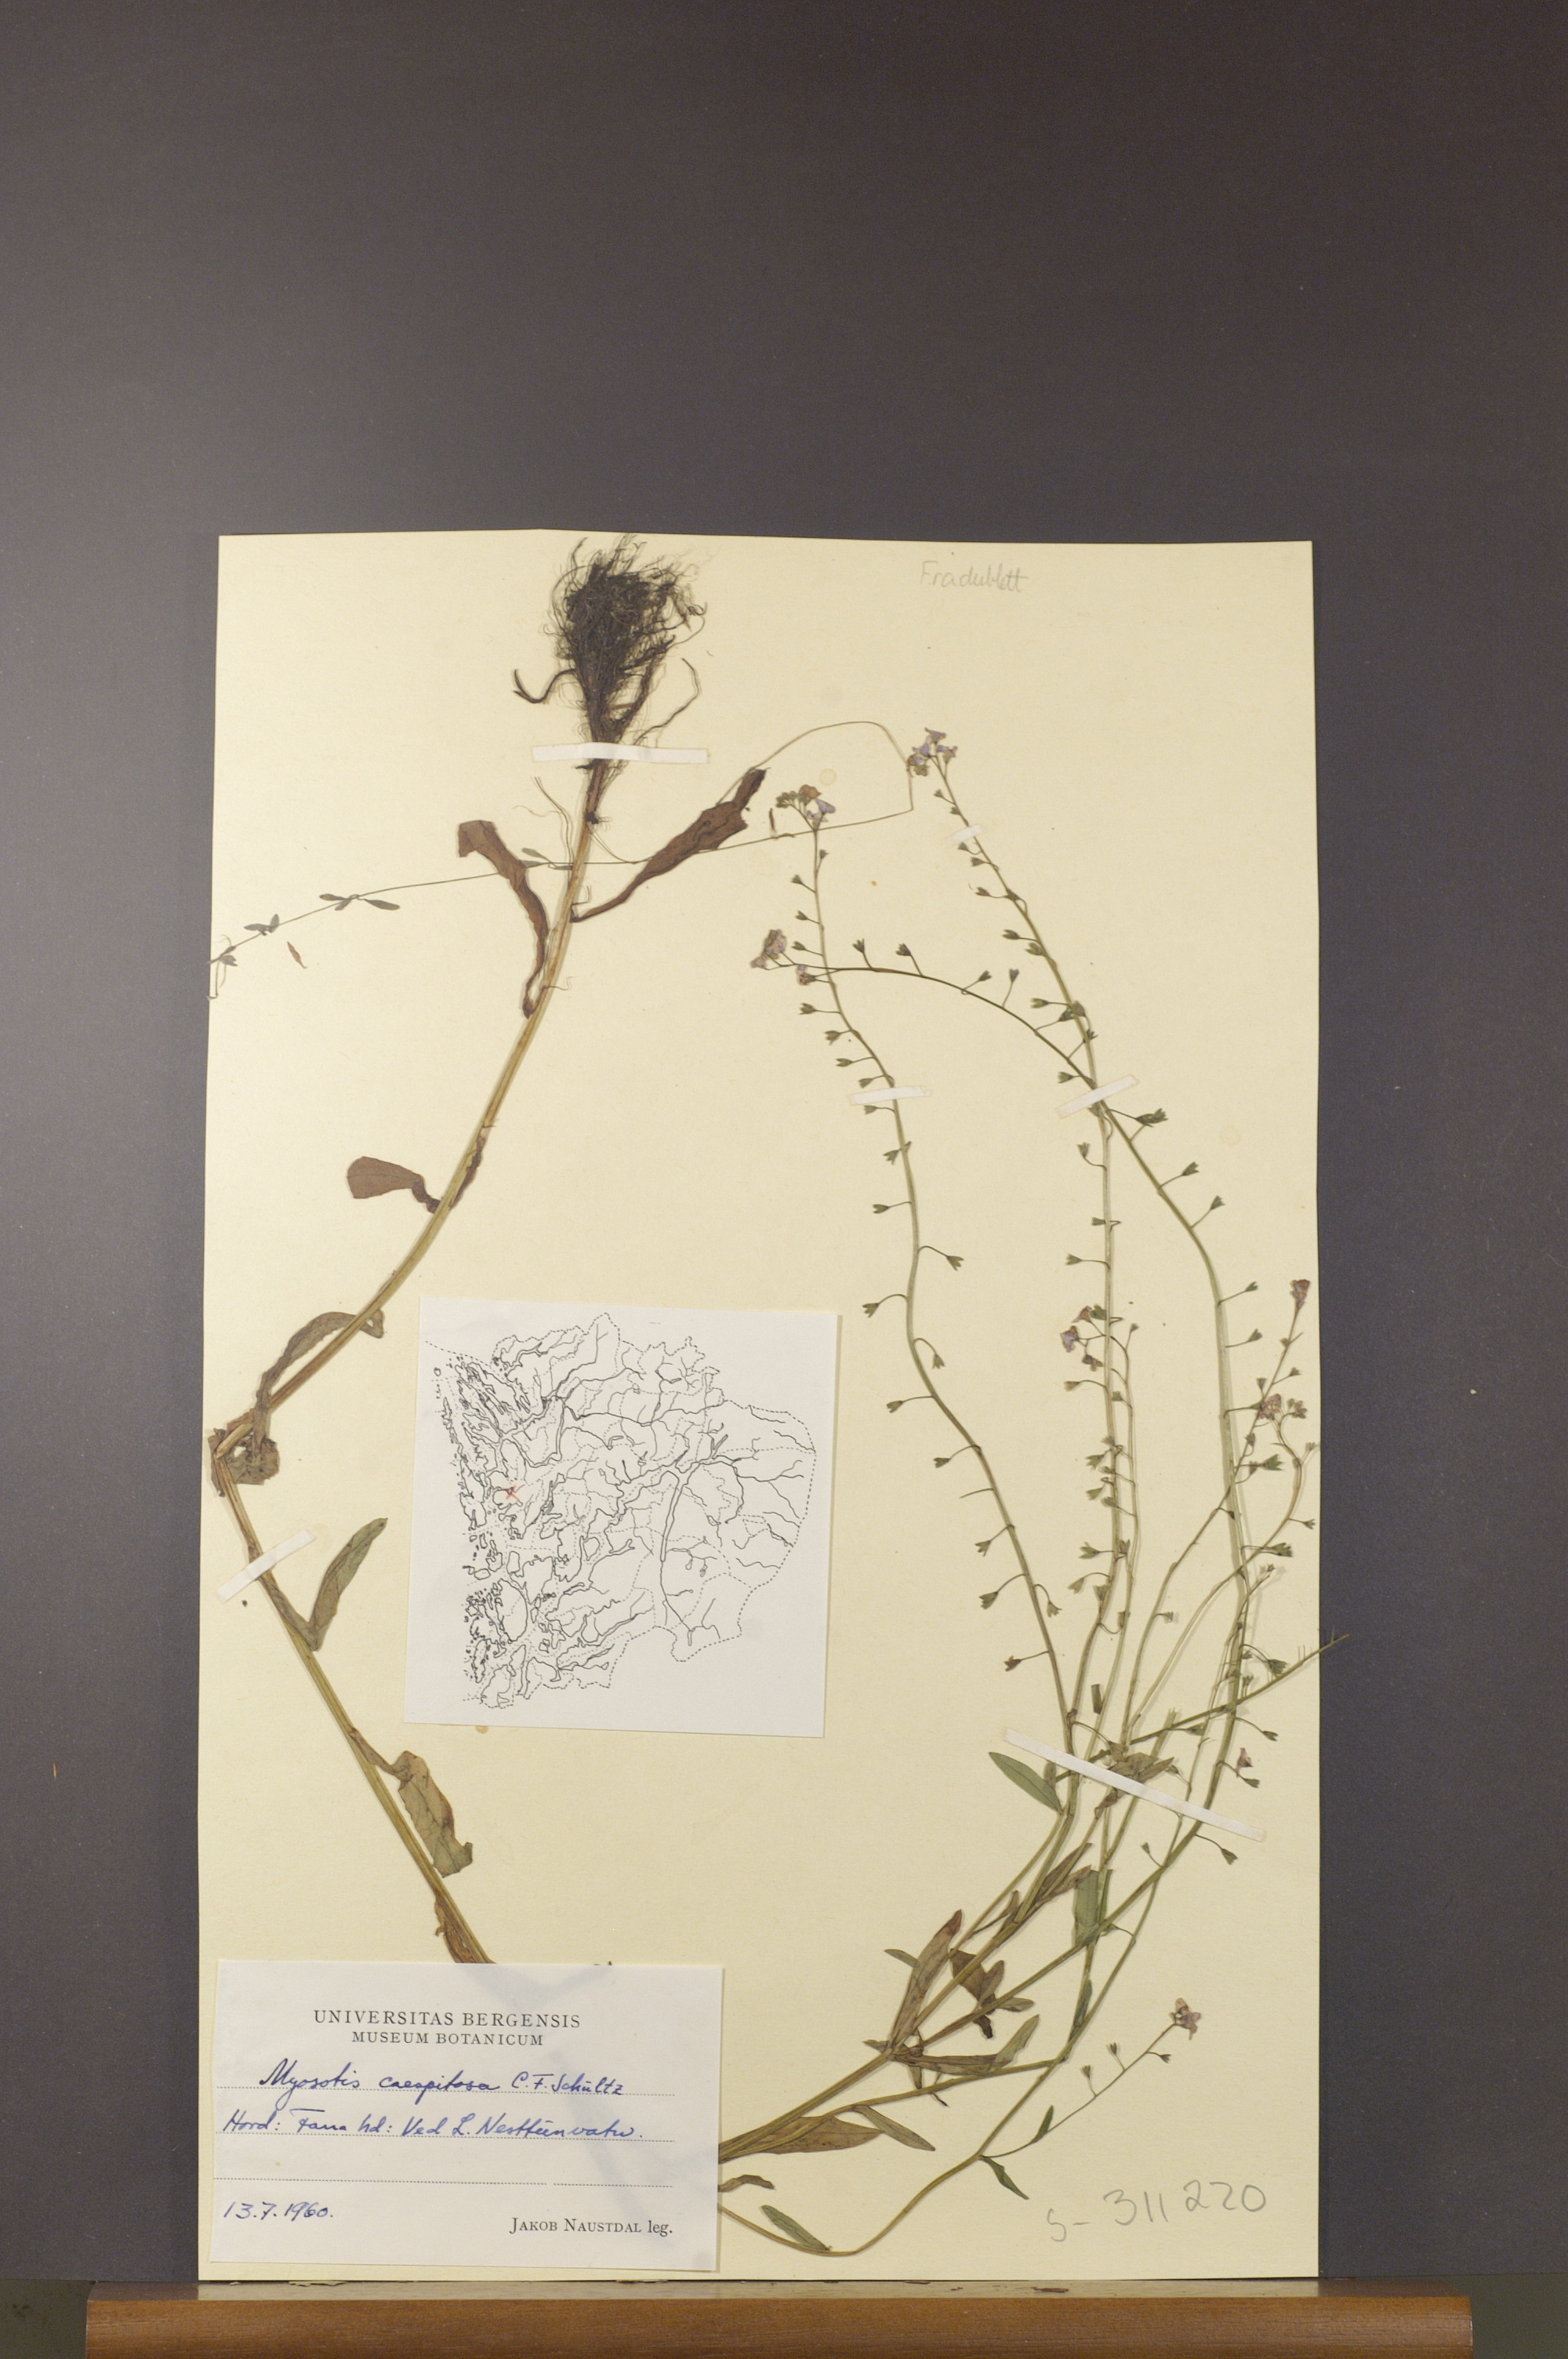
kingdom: Plantae
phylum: Tracheophyta
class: Magnoliopsida
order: Boraginales
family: Boraginaceae
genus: Myosotis
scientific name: Myosotis laxa
